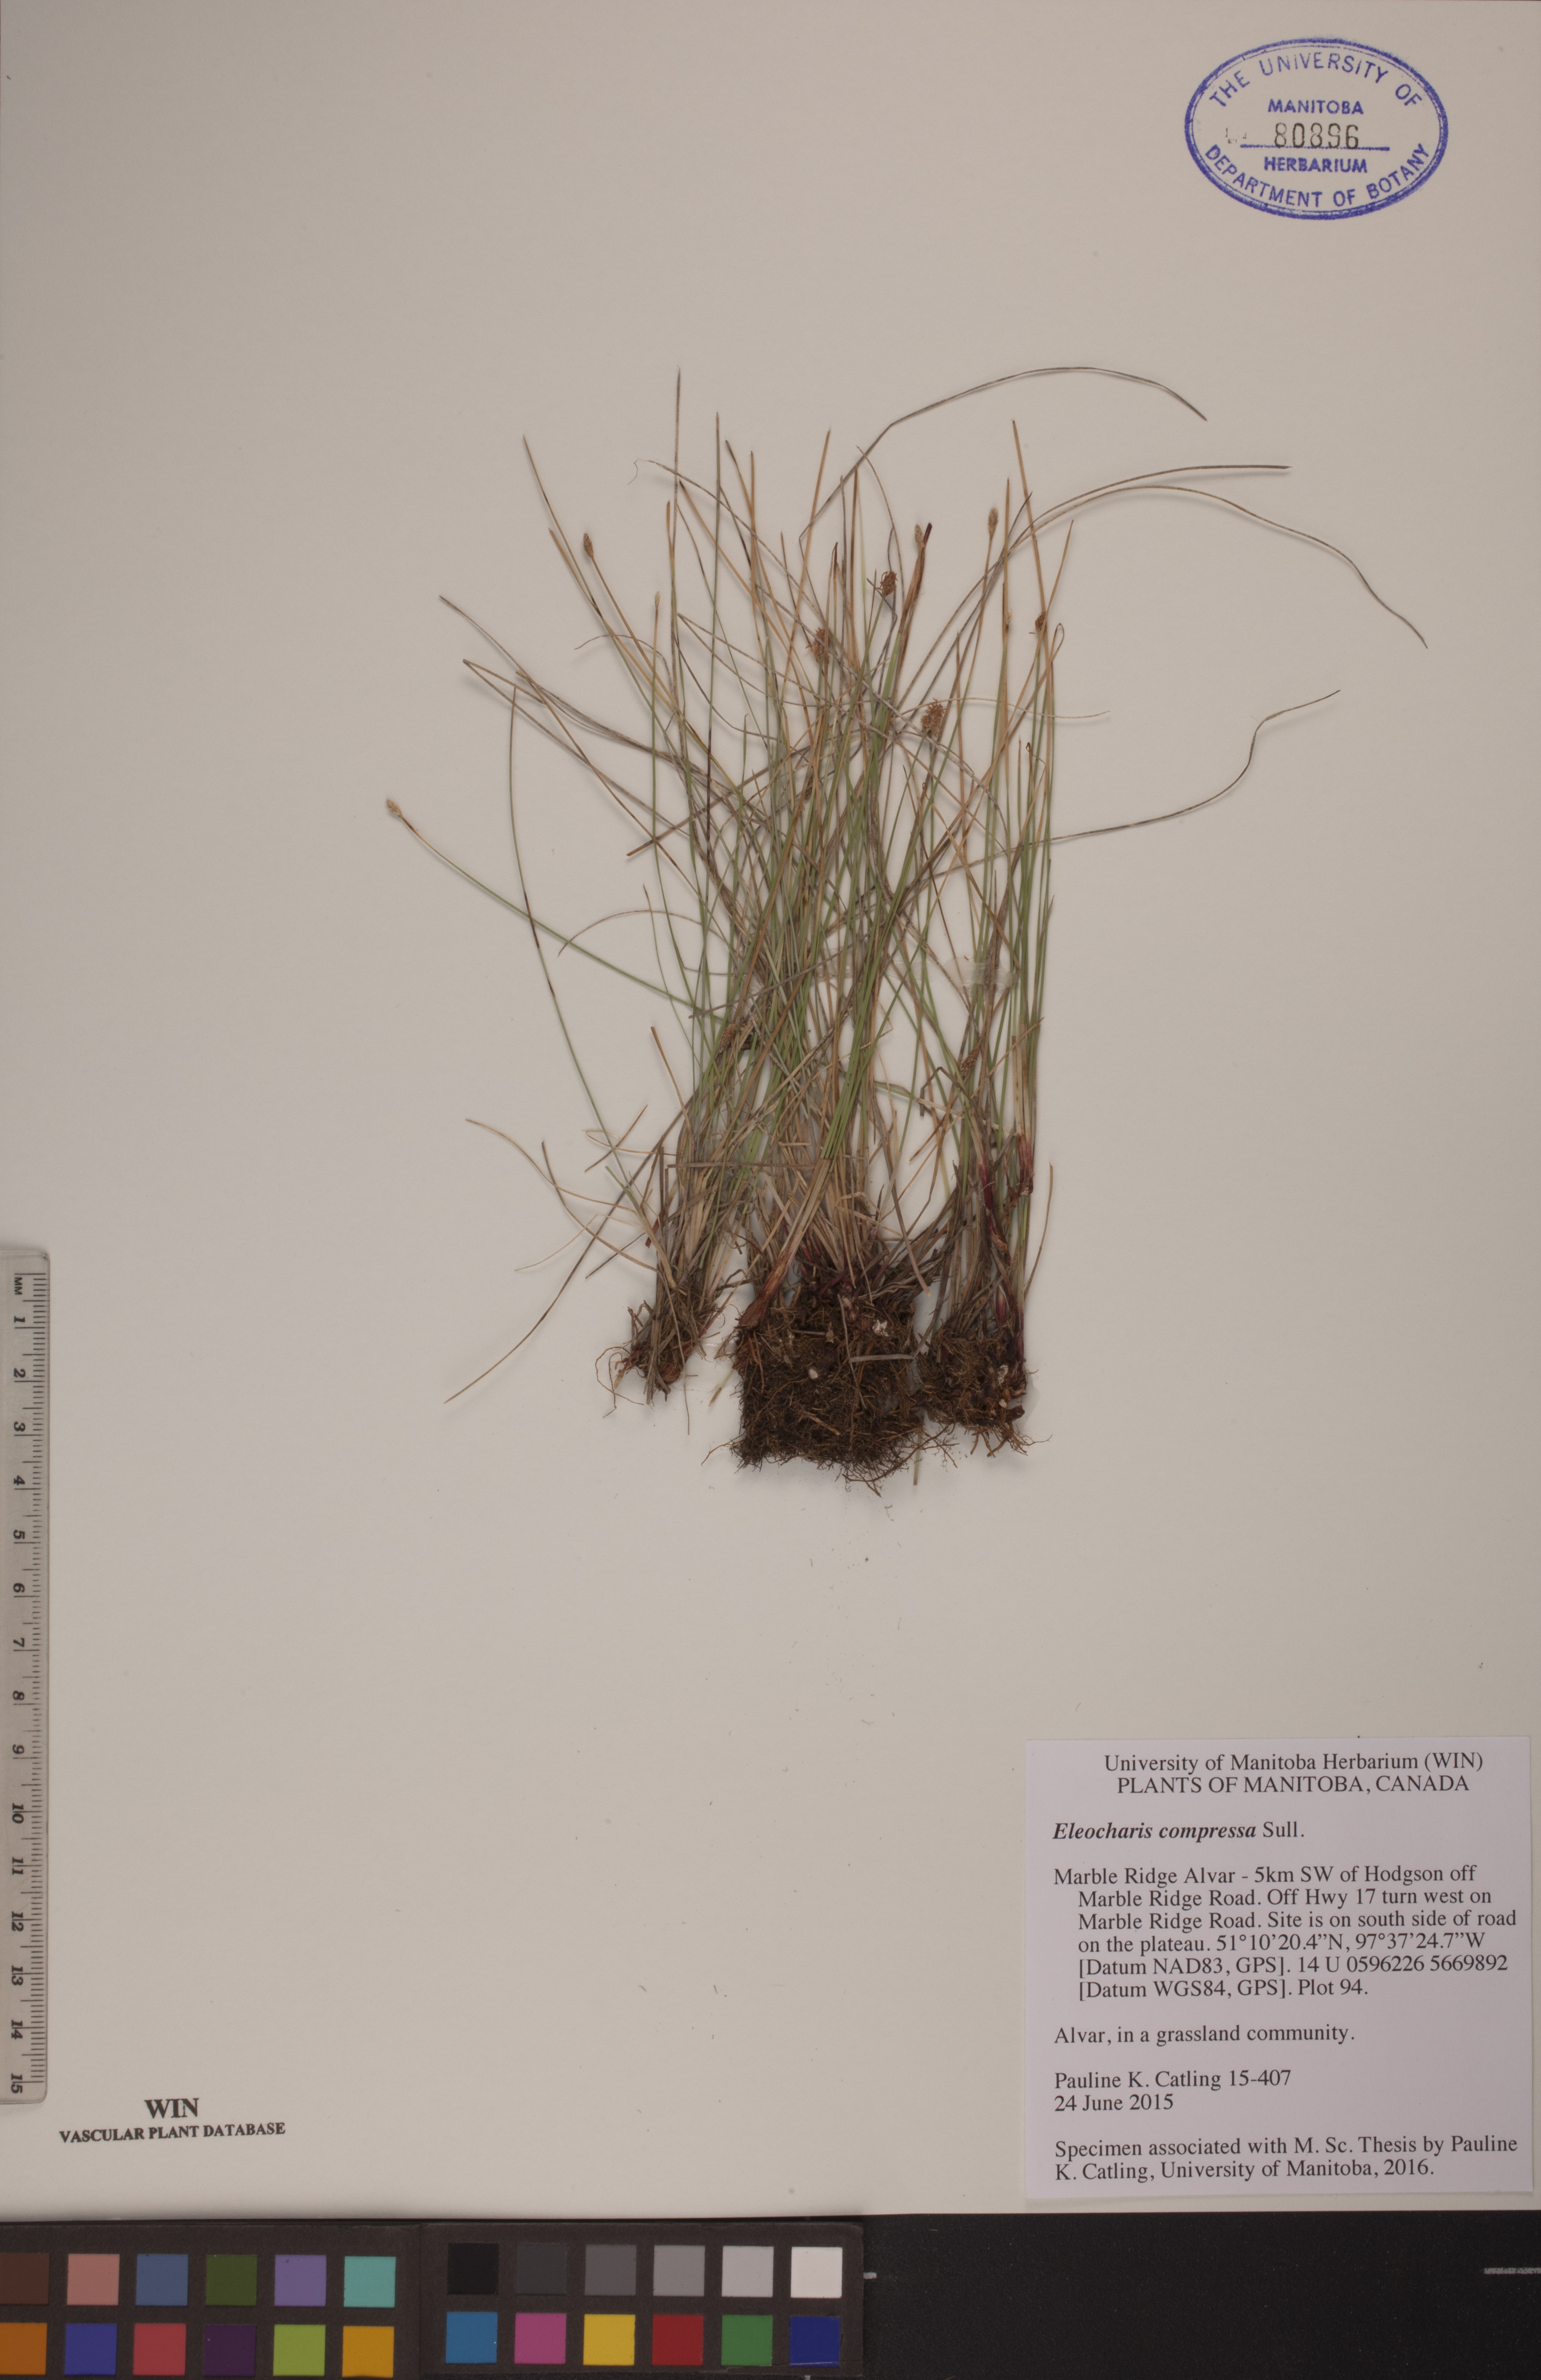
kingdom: Plantae
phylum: Tracheophyta
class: Liliopsida
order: Poales
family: Cyperaceae
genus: Eleocharis
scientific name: Eleocharis compressa
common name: Flat-stem spike-rush
